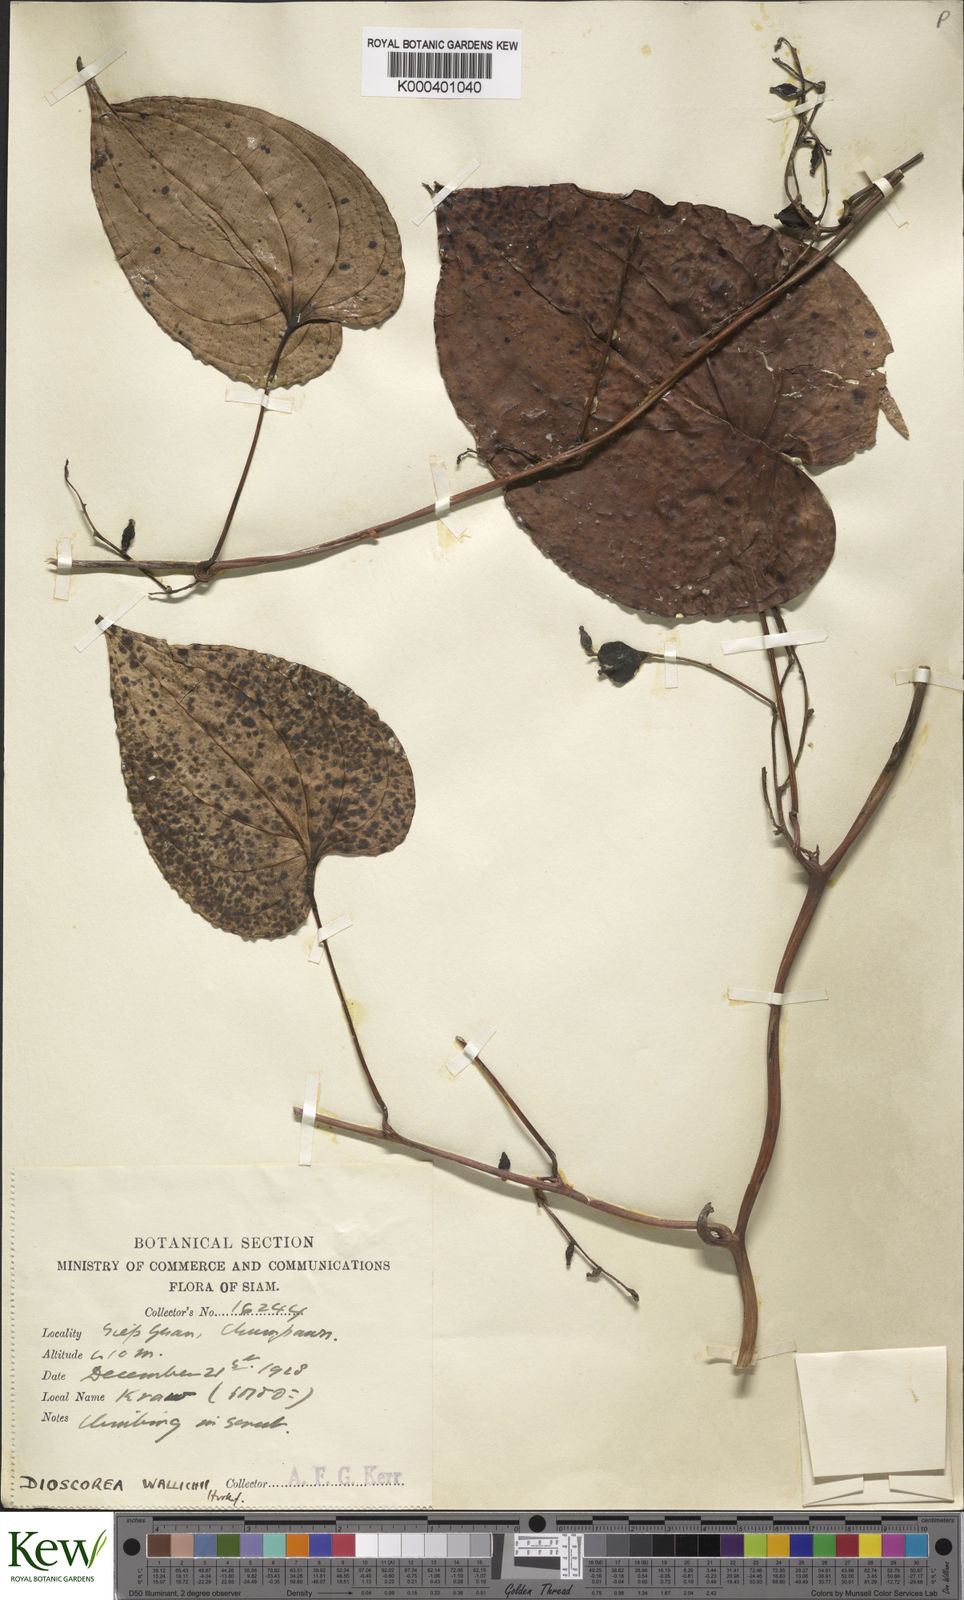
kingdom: Plantae
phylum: Tracheophyta
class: Liliopsida
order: Dioscoreales
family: Dioscoreaceae
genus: Dioscorea
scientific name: Dioscorea wallichii
